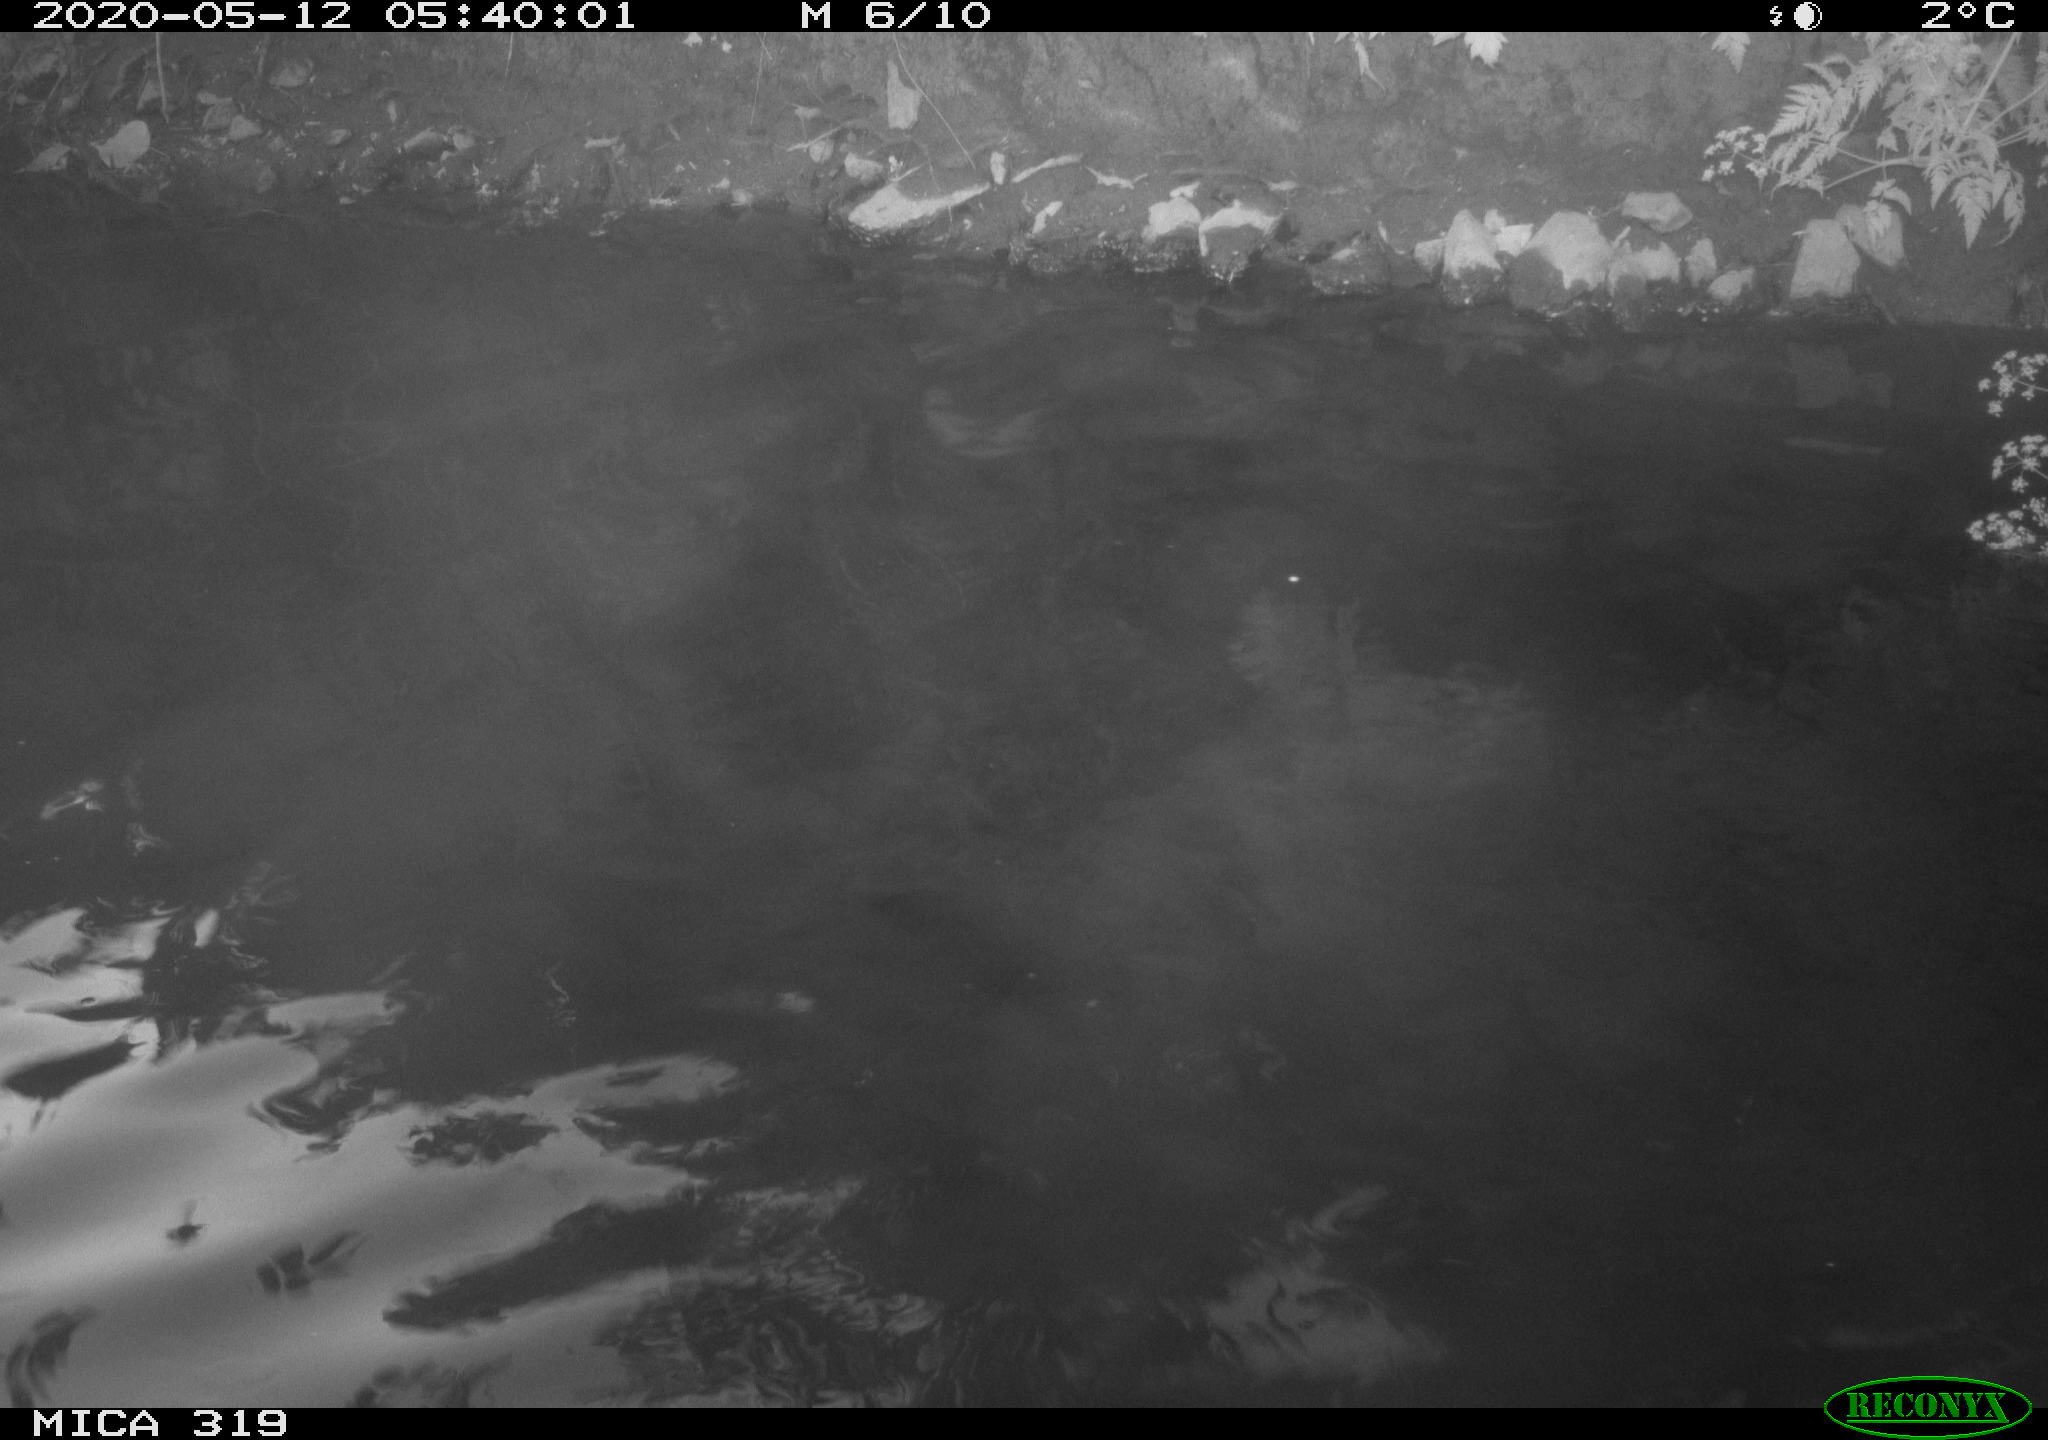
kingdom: Animalia
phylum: Chordata
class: Aves
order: Anseriformes
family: Anatidae
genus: Anas
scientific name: Anas platyrhynchos
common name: Mallard
